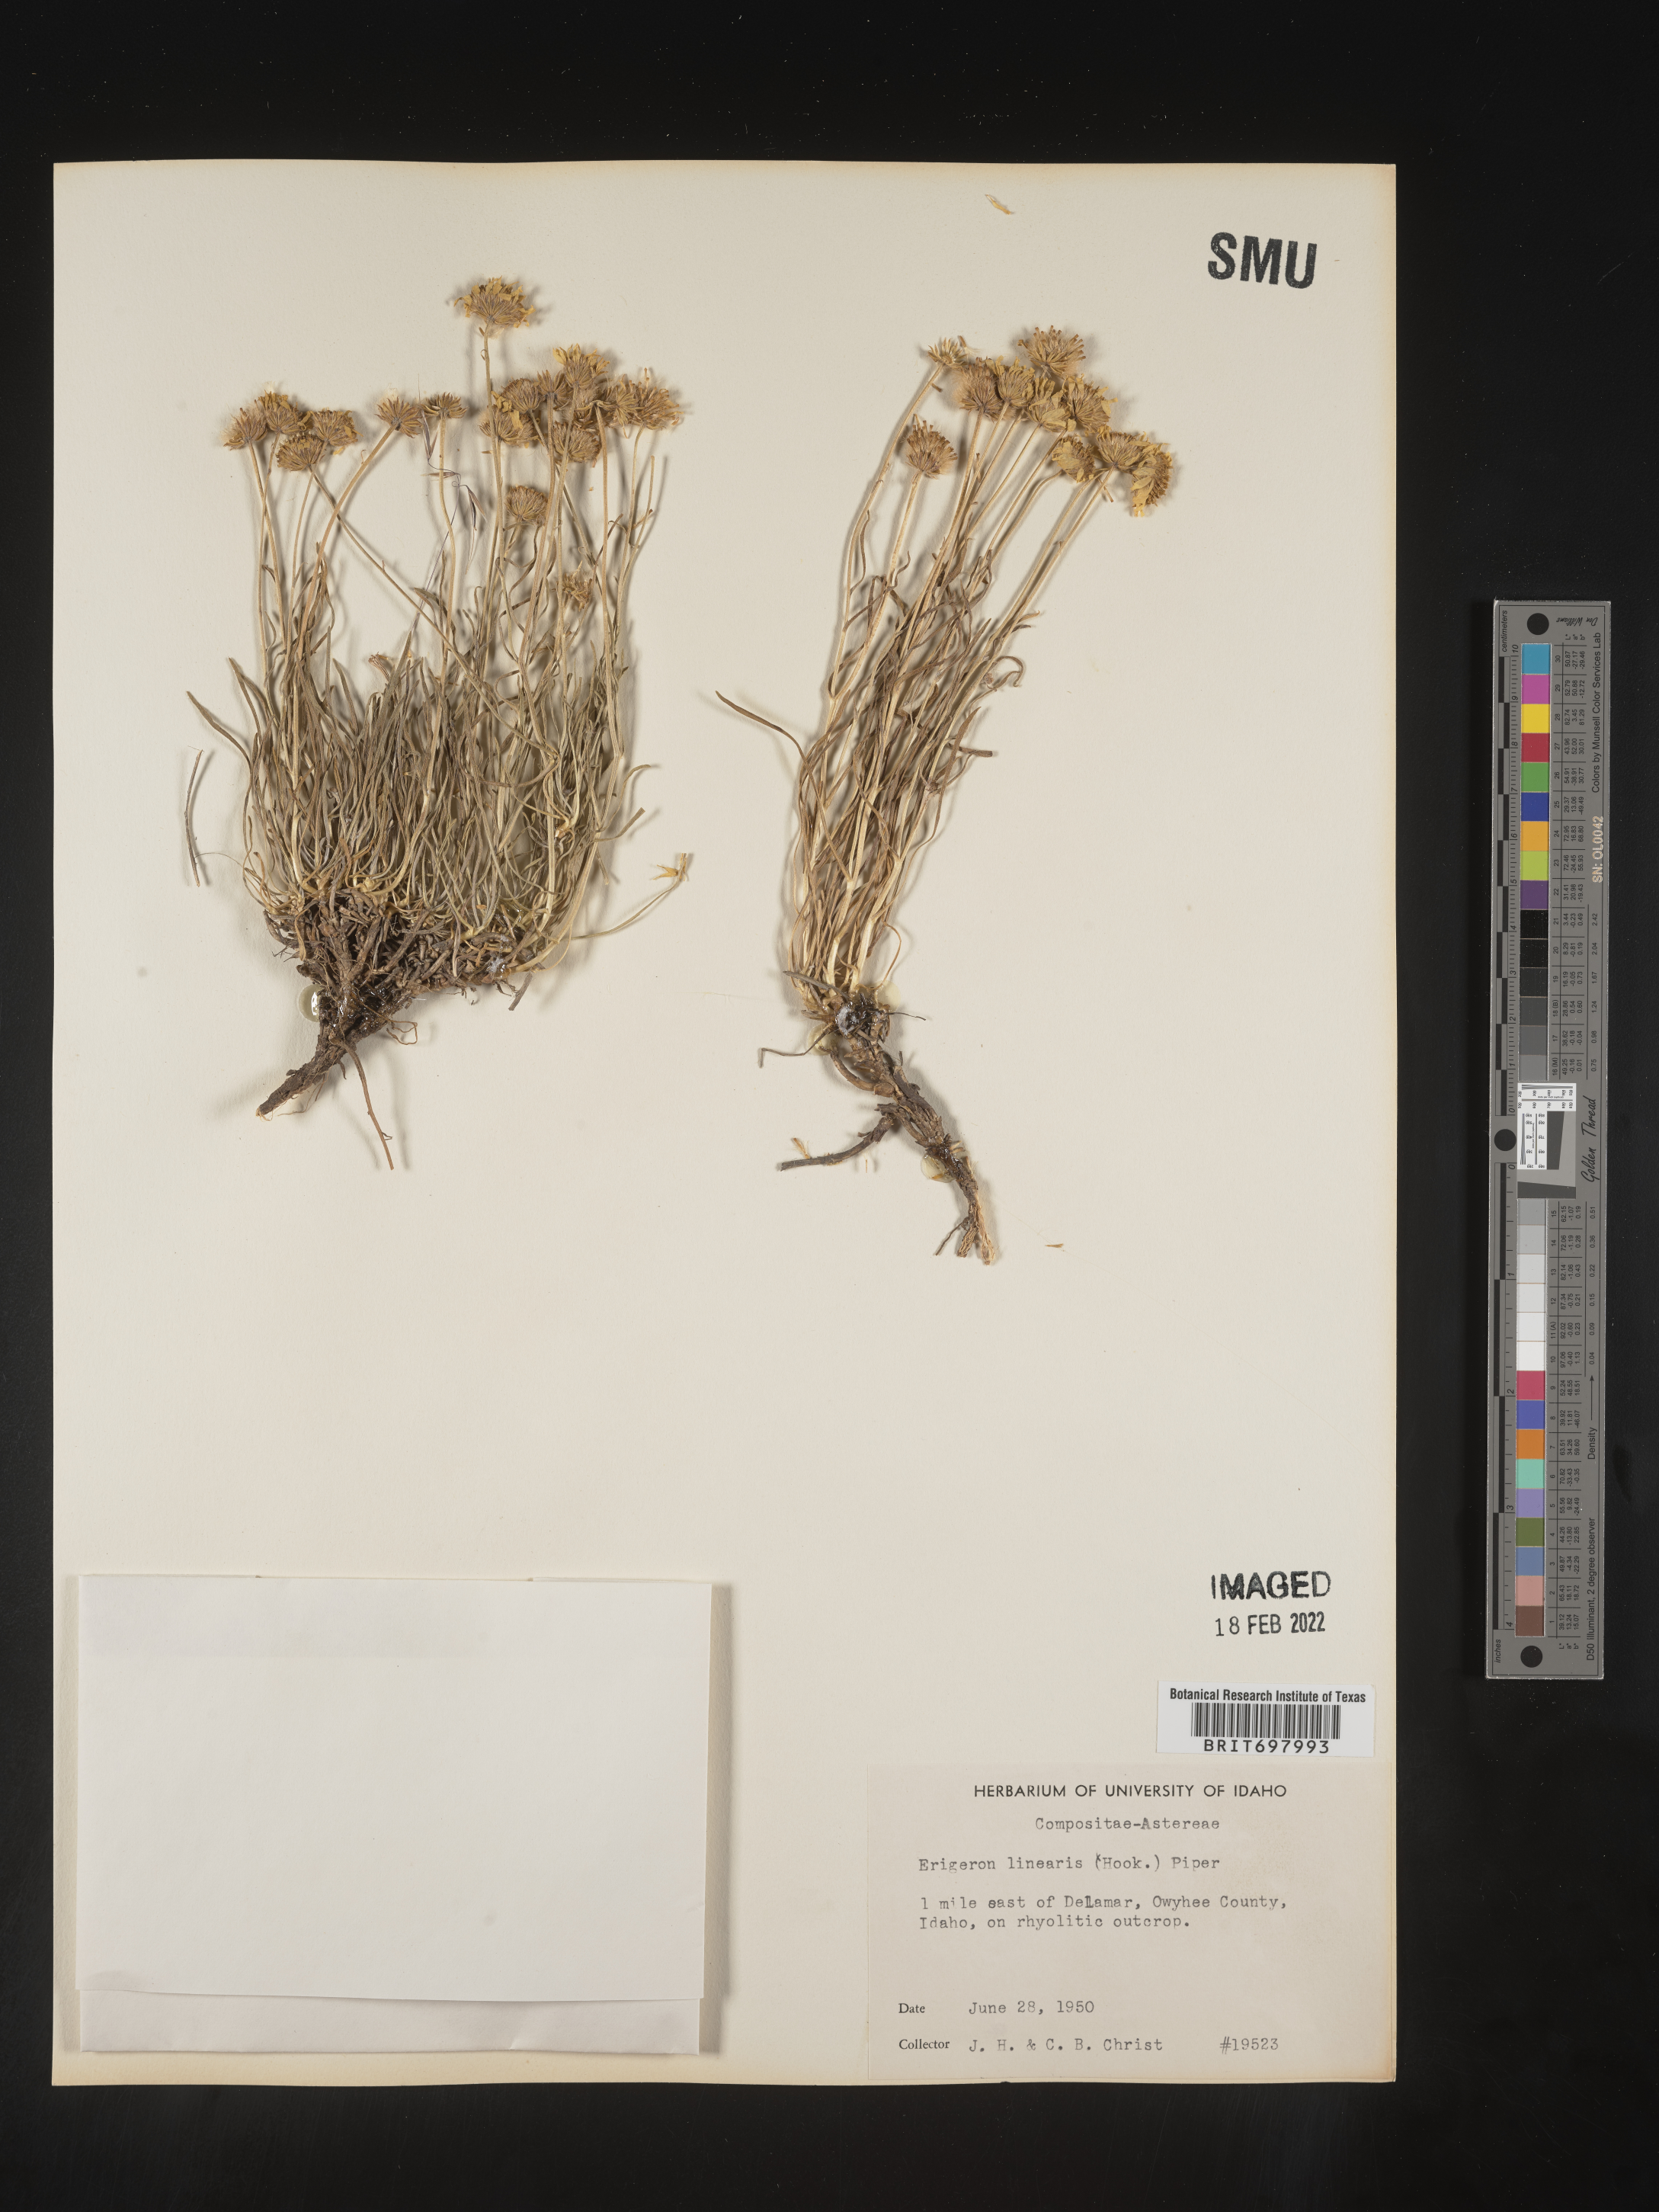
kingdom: Plantae
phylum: Tracheophyta
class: Magnoliopsida
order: Asterales
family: Asteraceae
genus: Erigeron
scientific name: Erigeron linearis
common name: Desert yellow fleabane
